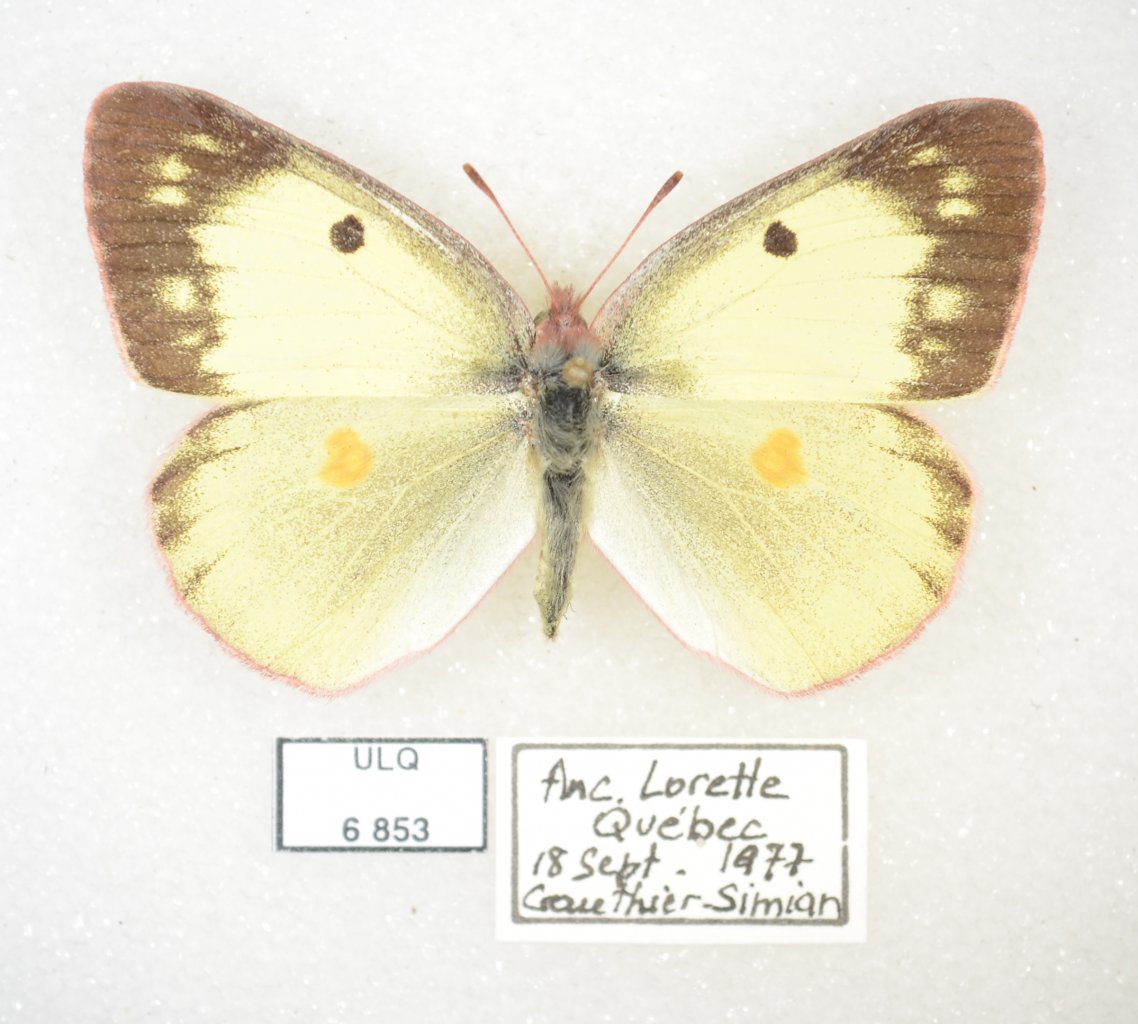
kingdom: Animalia
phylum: Arthropoda
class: Insecta
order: Lepidoptera
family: Pieridae
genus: Colias
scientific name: Colias philodice
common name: Clouded Sulphur
